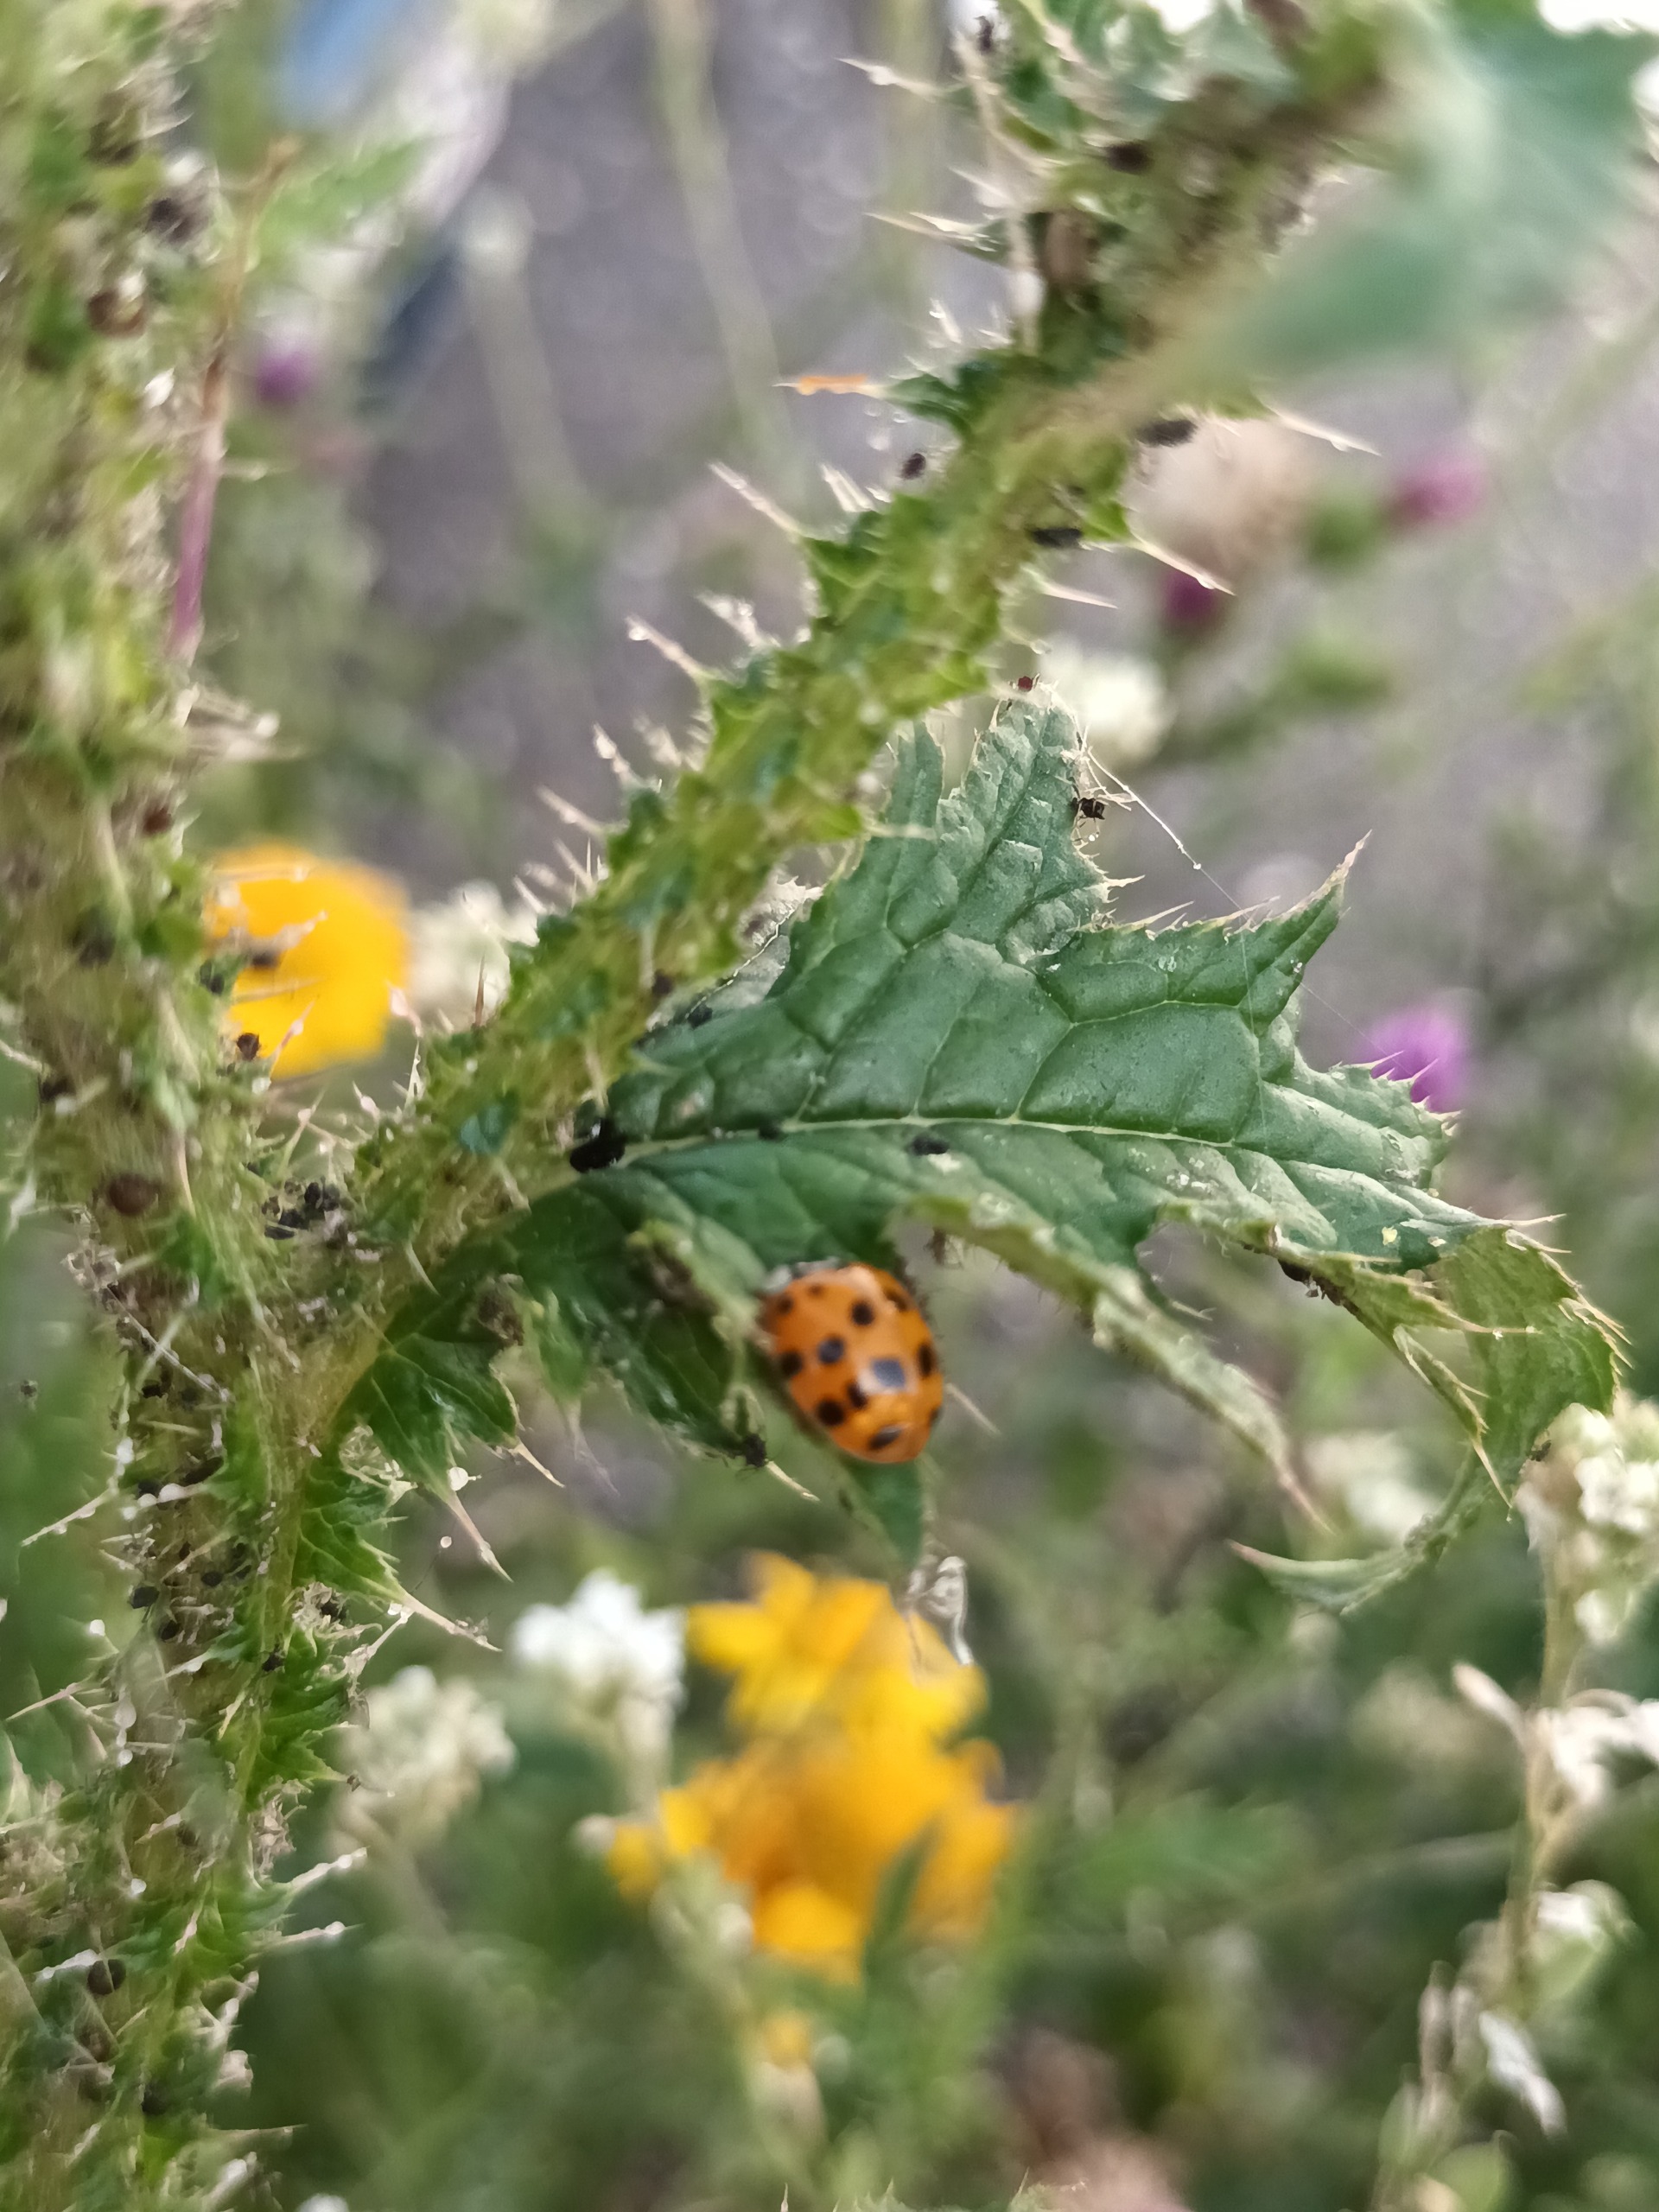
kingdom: Animalia
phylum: Arthropoda
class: Insecta
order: Coleoptera
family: Coccinellidae
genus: Harmonia
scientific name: Harmonia axyridis
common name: Harlekinmariehøne
